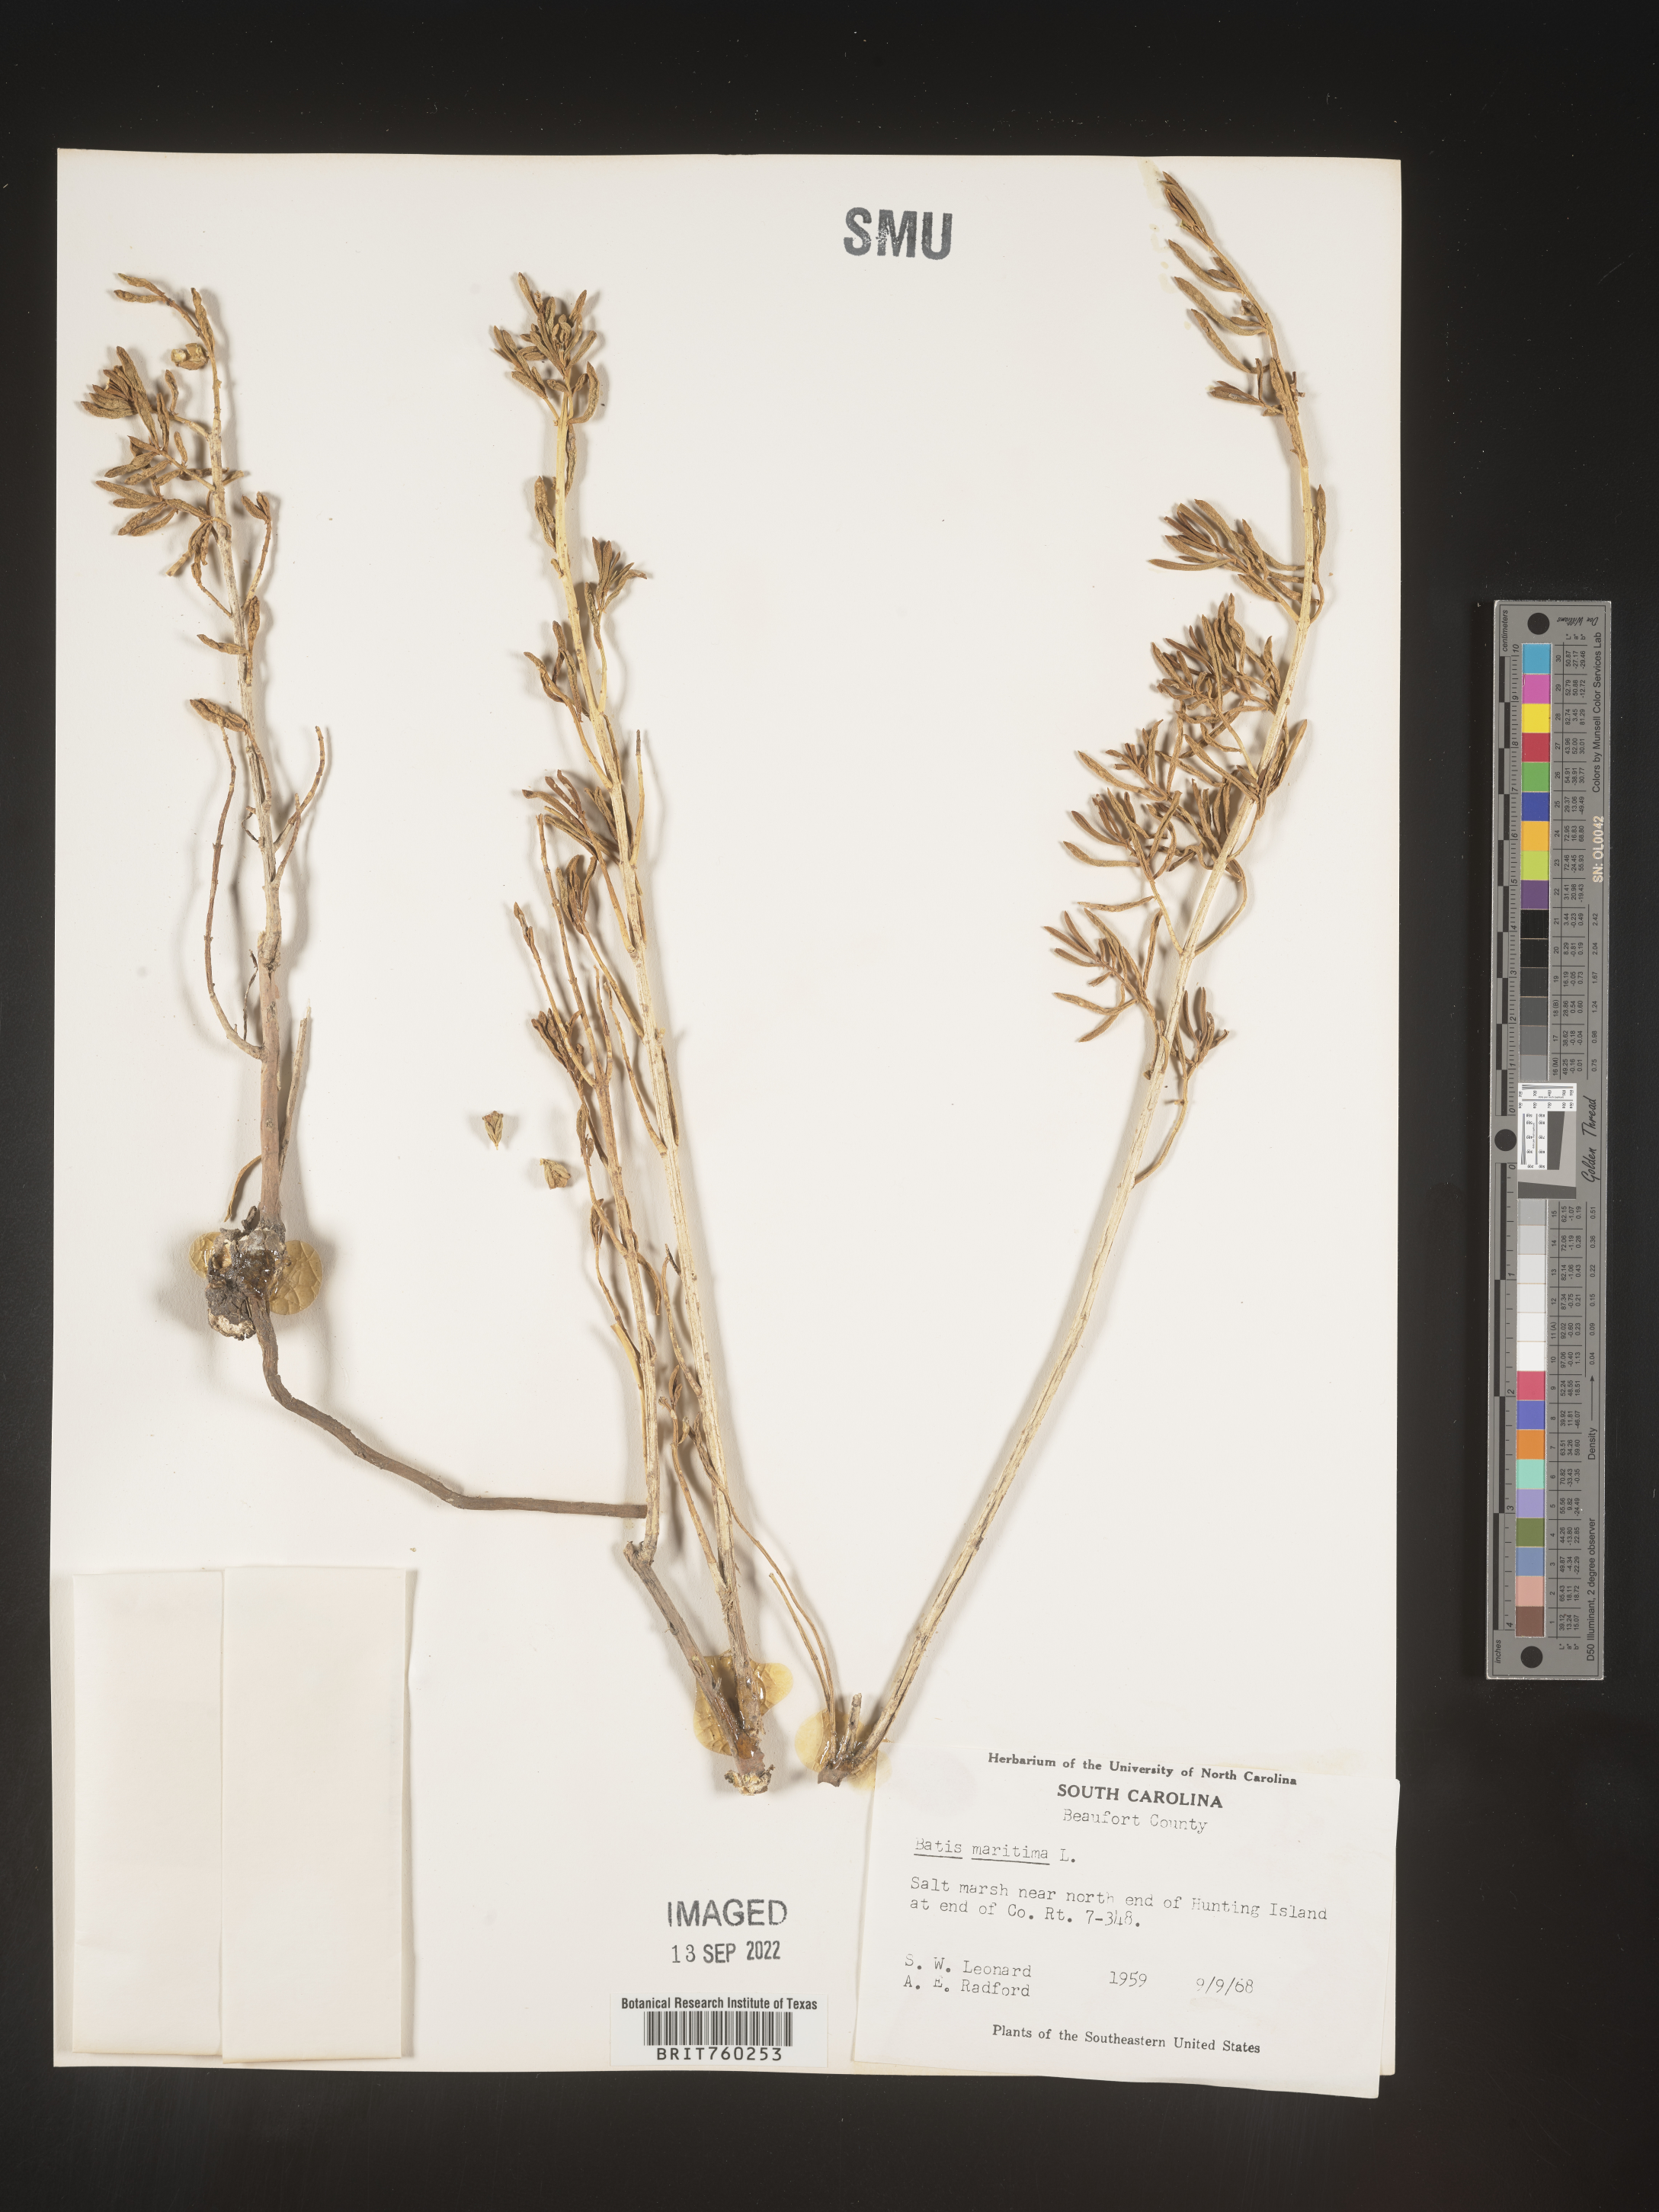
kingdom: Plantae
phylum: Tracheophyta
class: Magnoliopsida
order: Brassicales
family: Bataceae
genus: Batis
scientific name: Batis maritima
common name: Turtleweed
